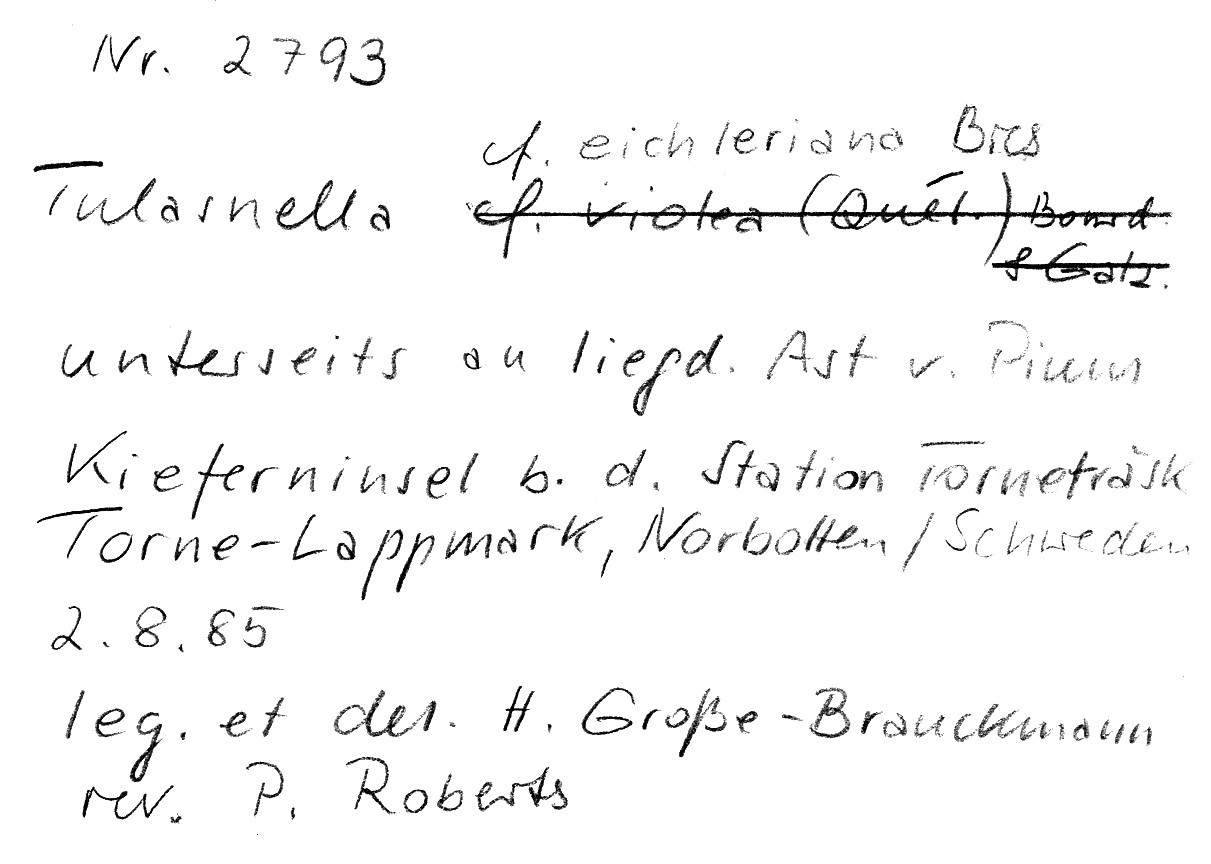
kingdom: Fungi
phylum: Basidiomycota
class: Agaricomycetes
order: Cantharellales
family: Tulasnellaceae
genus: Tulasnella
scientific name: Tulasnella eichleriana
